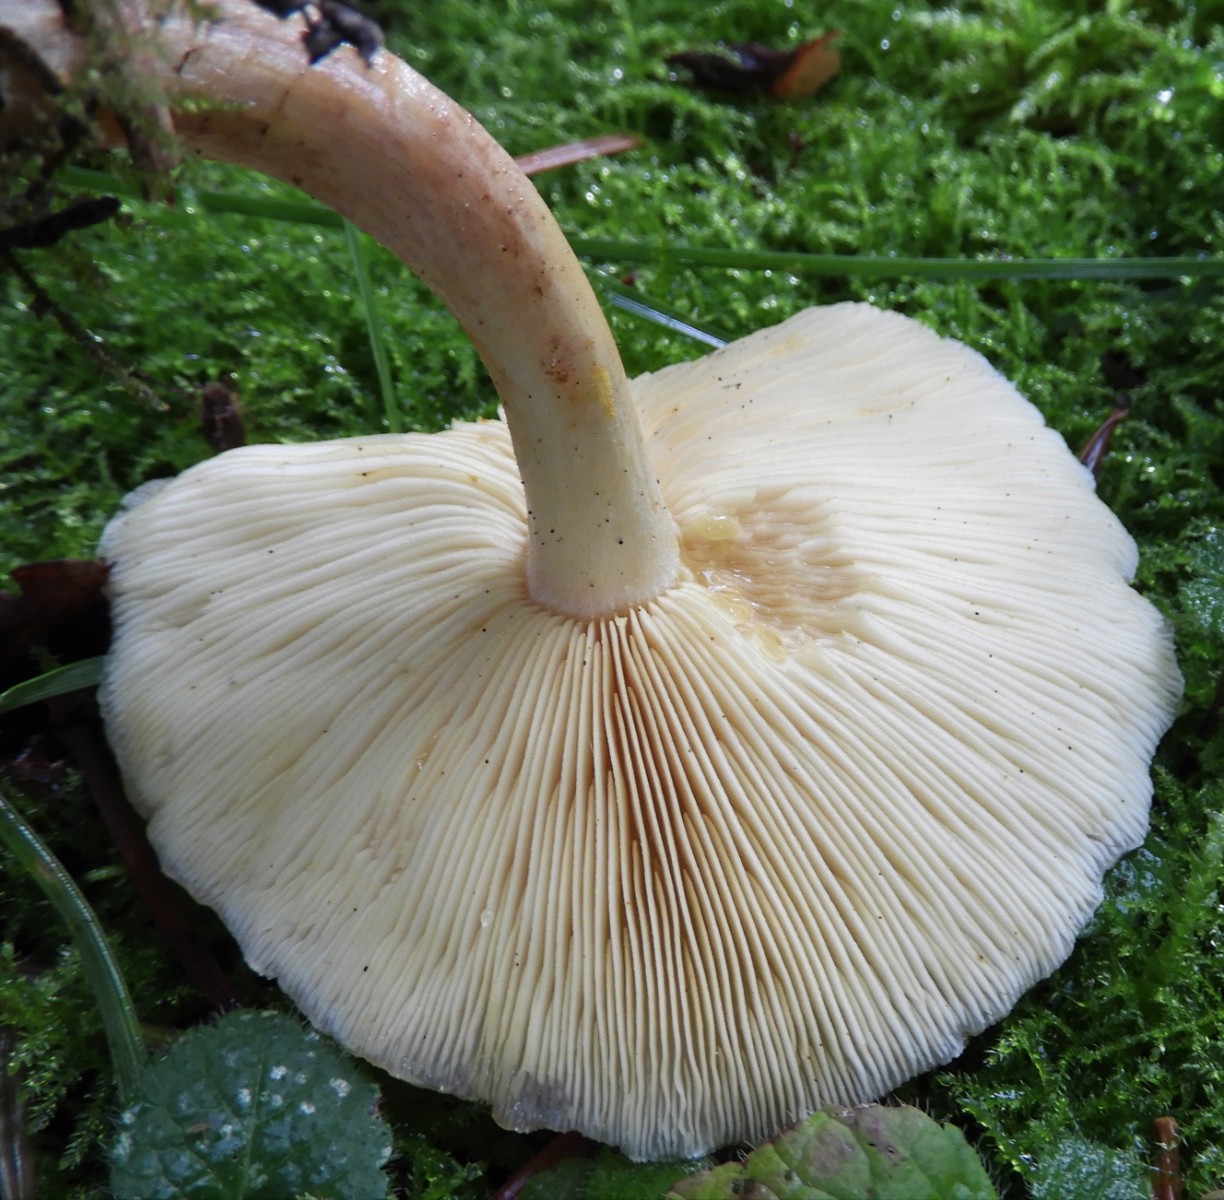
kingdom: Fungi
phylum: Basidiomycota
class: Agaricomycetes
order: Agaricales
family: Tricholomataceae
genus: Tricholomopsis
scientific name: Tricholomopsis rutilans
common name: purpur-væbnerhat
